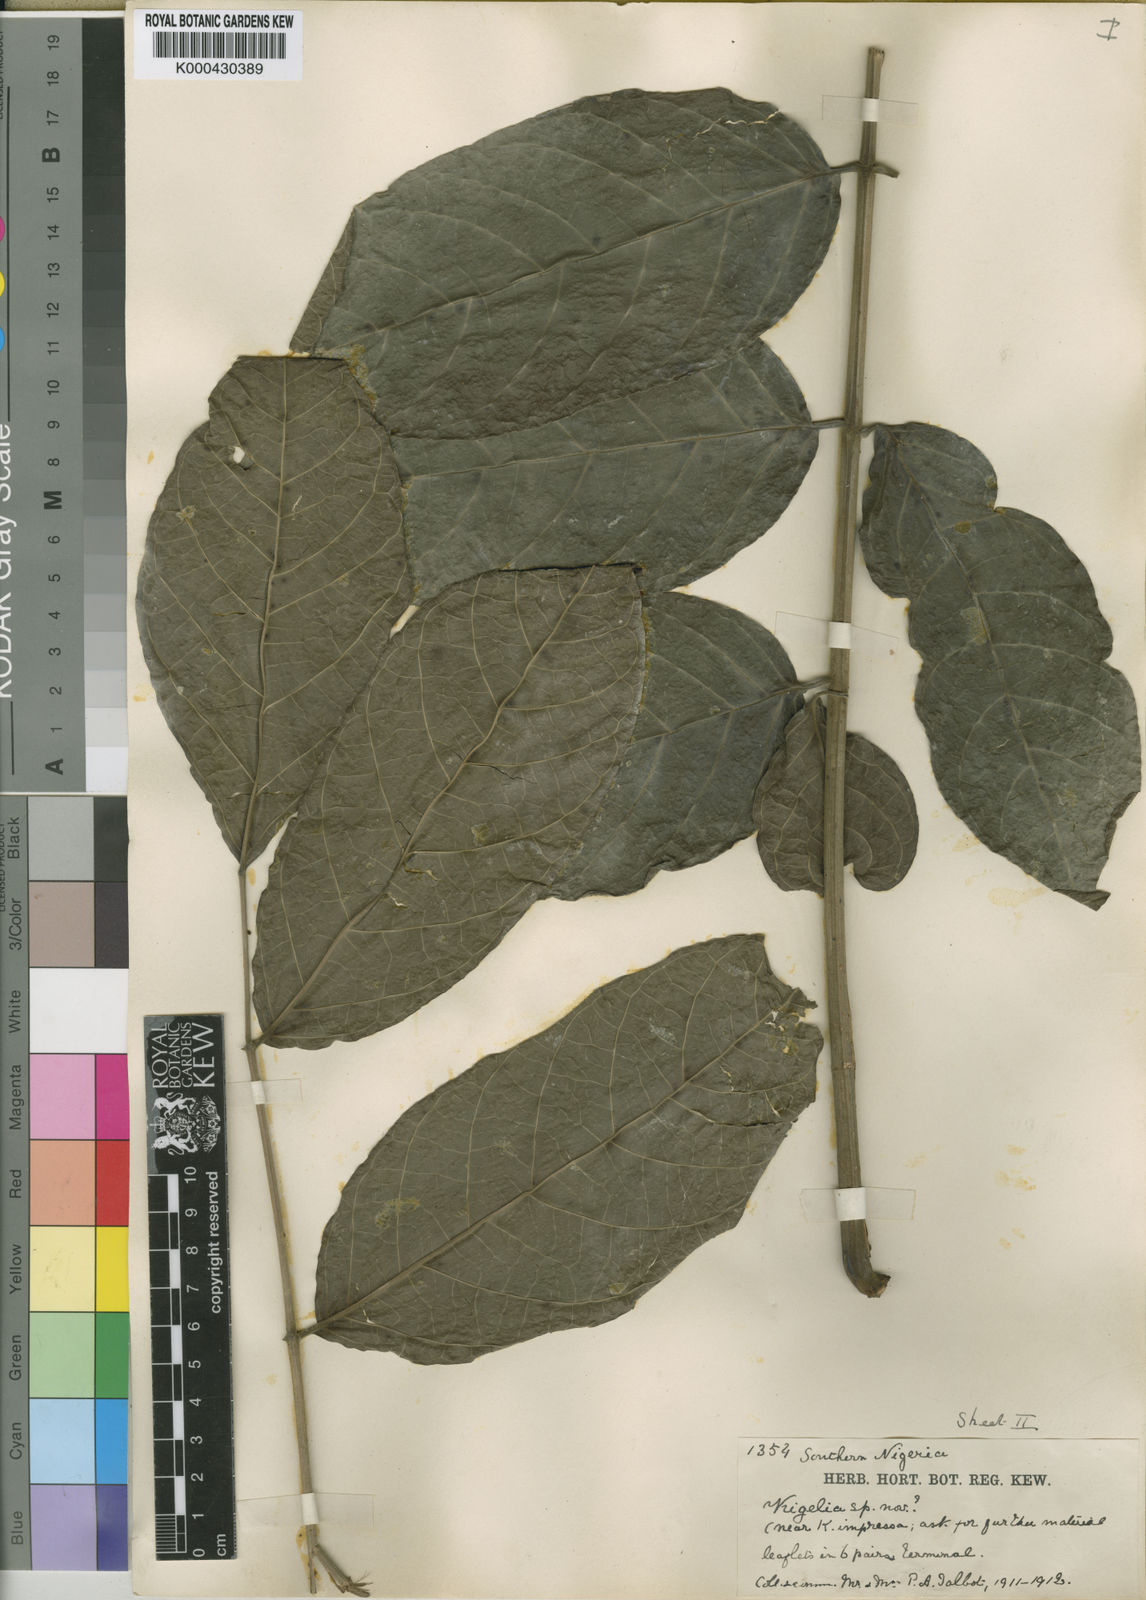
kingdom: Plantae
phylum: Tracheophyta
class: Magnoliopsida
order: Lamiales
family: Bignoniaceae
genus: Kigelia
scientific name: Kigelia africana
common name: Sausage tree
